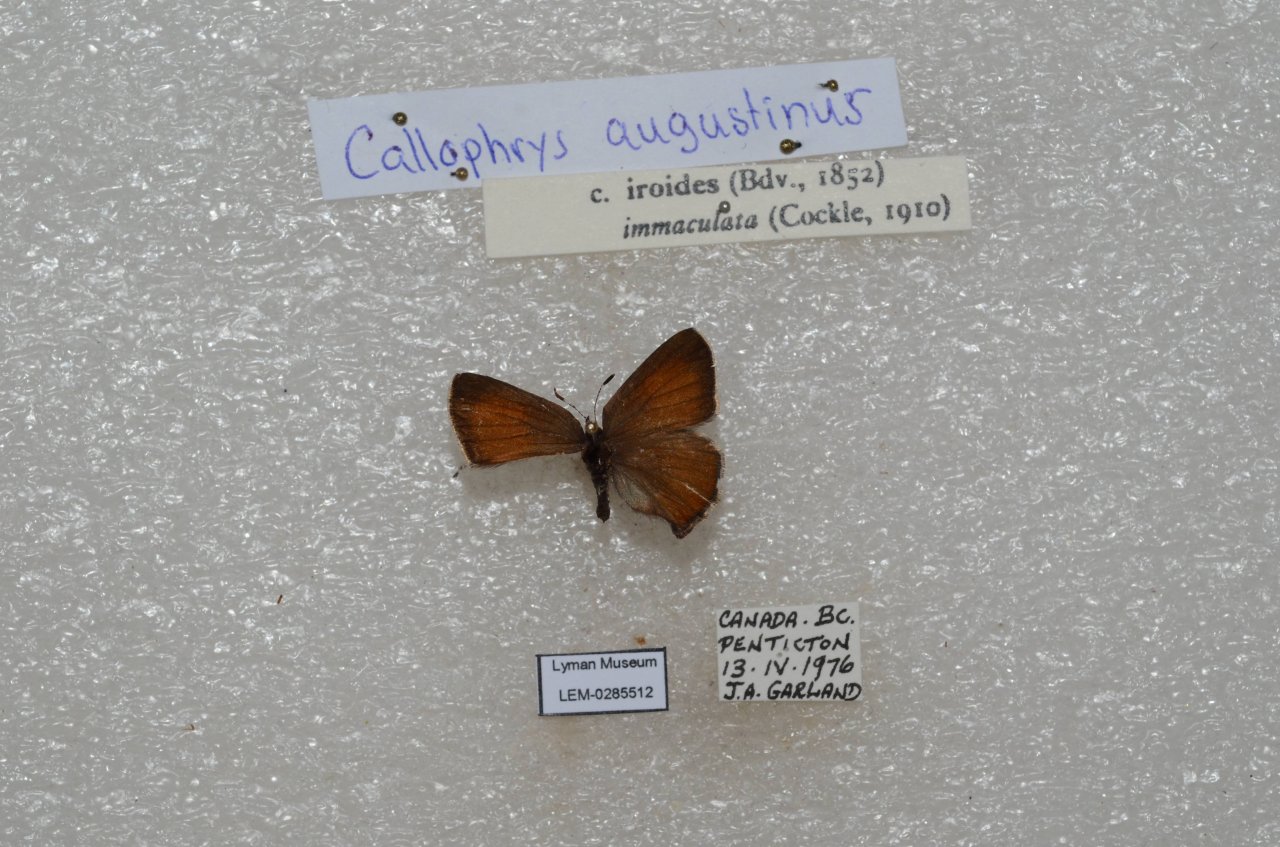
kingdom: Animalia
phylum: Arthropoda
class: Insecta
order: Lepidoptera
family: Lycaenidae
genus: Incisalia
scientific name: Incisalia irioides
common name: Brown Elfin
